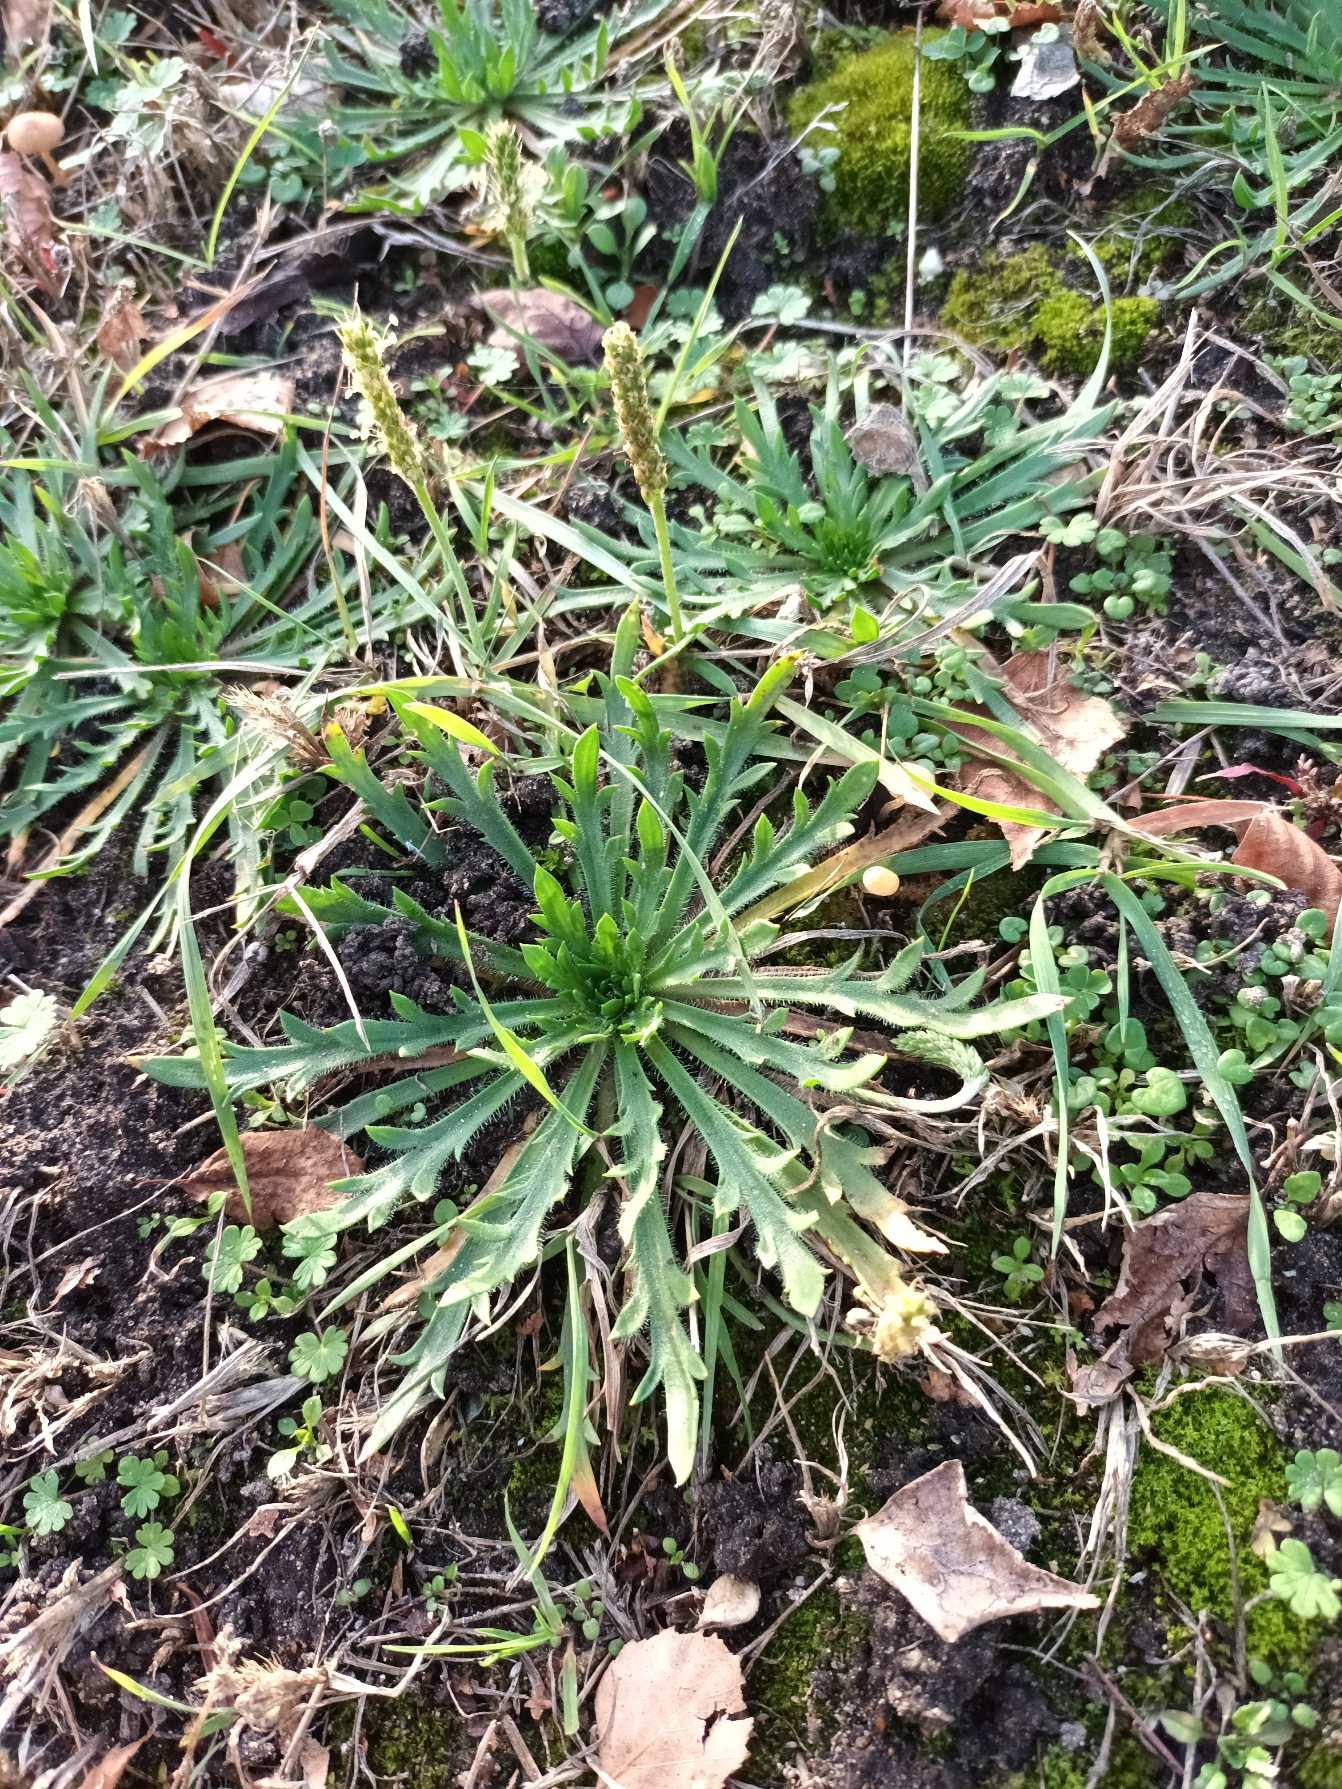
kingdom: Plantae
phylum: Tracheophyta
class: Magnoliopsida
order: Lamiales
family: Plantaginaceae
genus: Plantago
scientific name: Plantago coronopus
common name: Fliget vejbred
